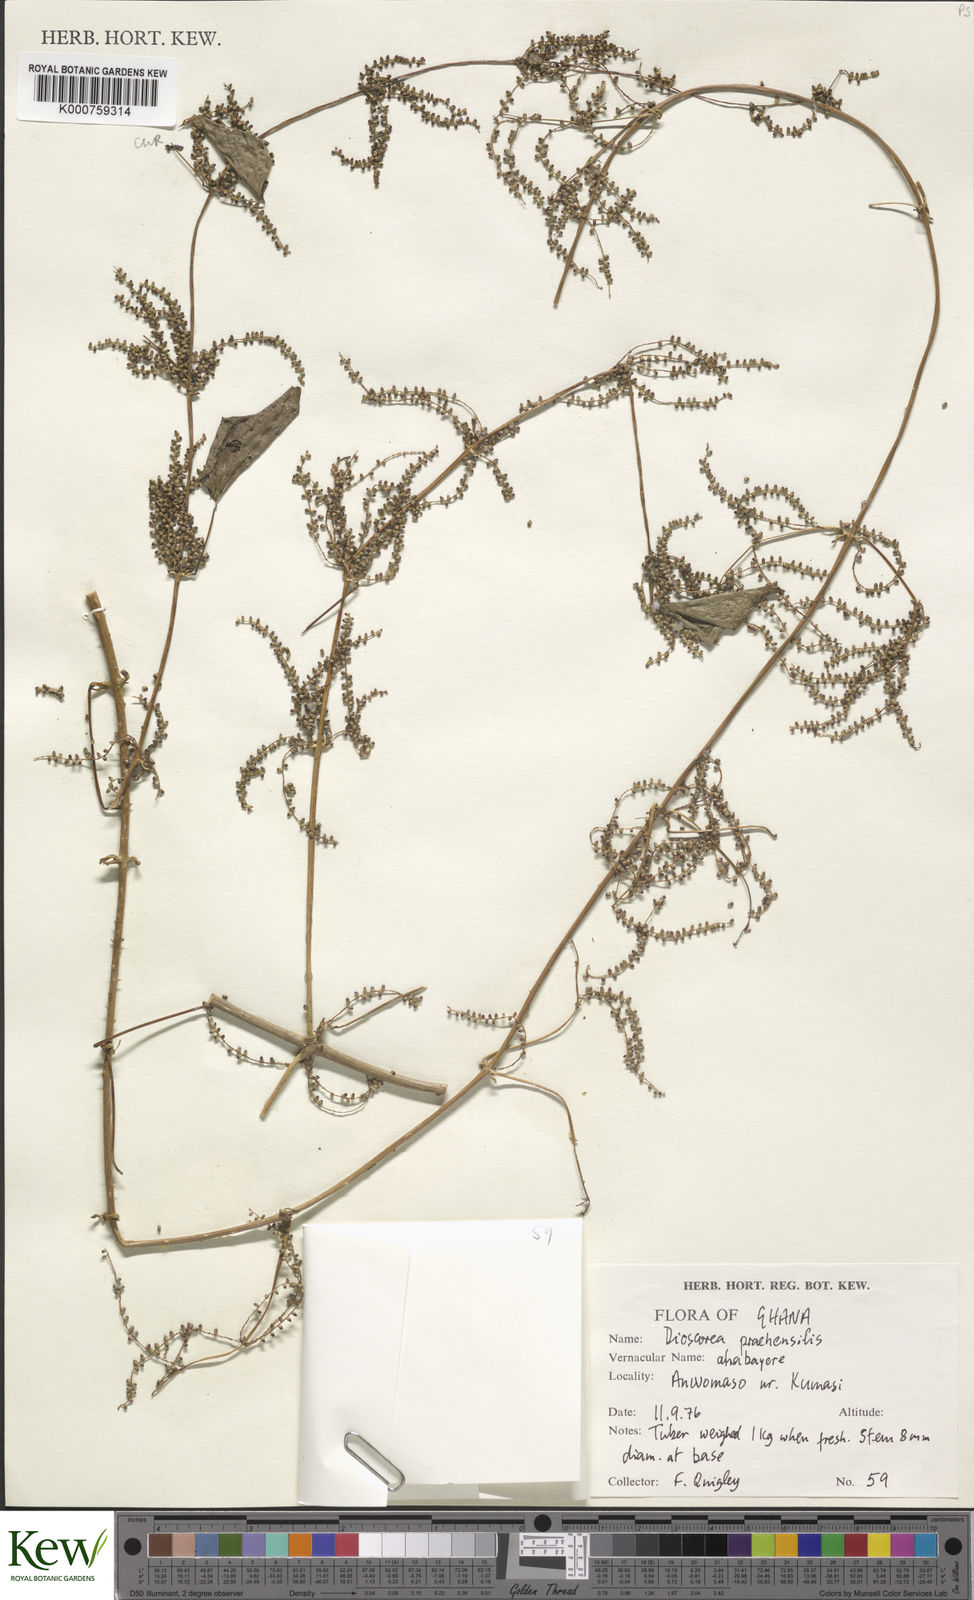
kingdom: Plantae
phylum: Tracheophyta
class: Liliopsida
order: Dioscoreales
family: Dioscoreaceae
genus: Dioscorea
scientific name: Dioscorea praehensilis
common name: Bush yam
